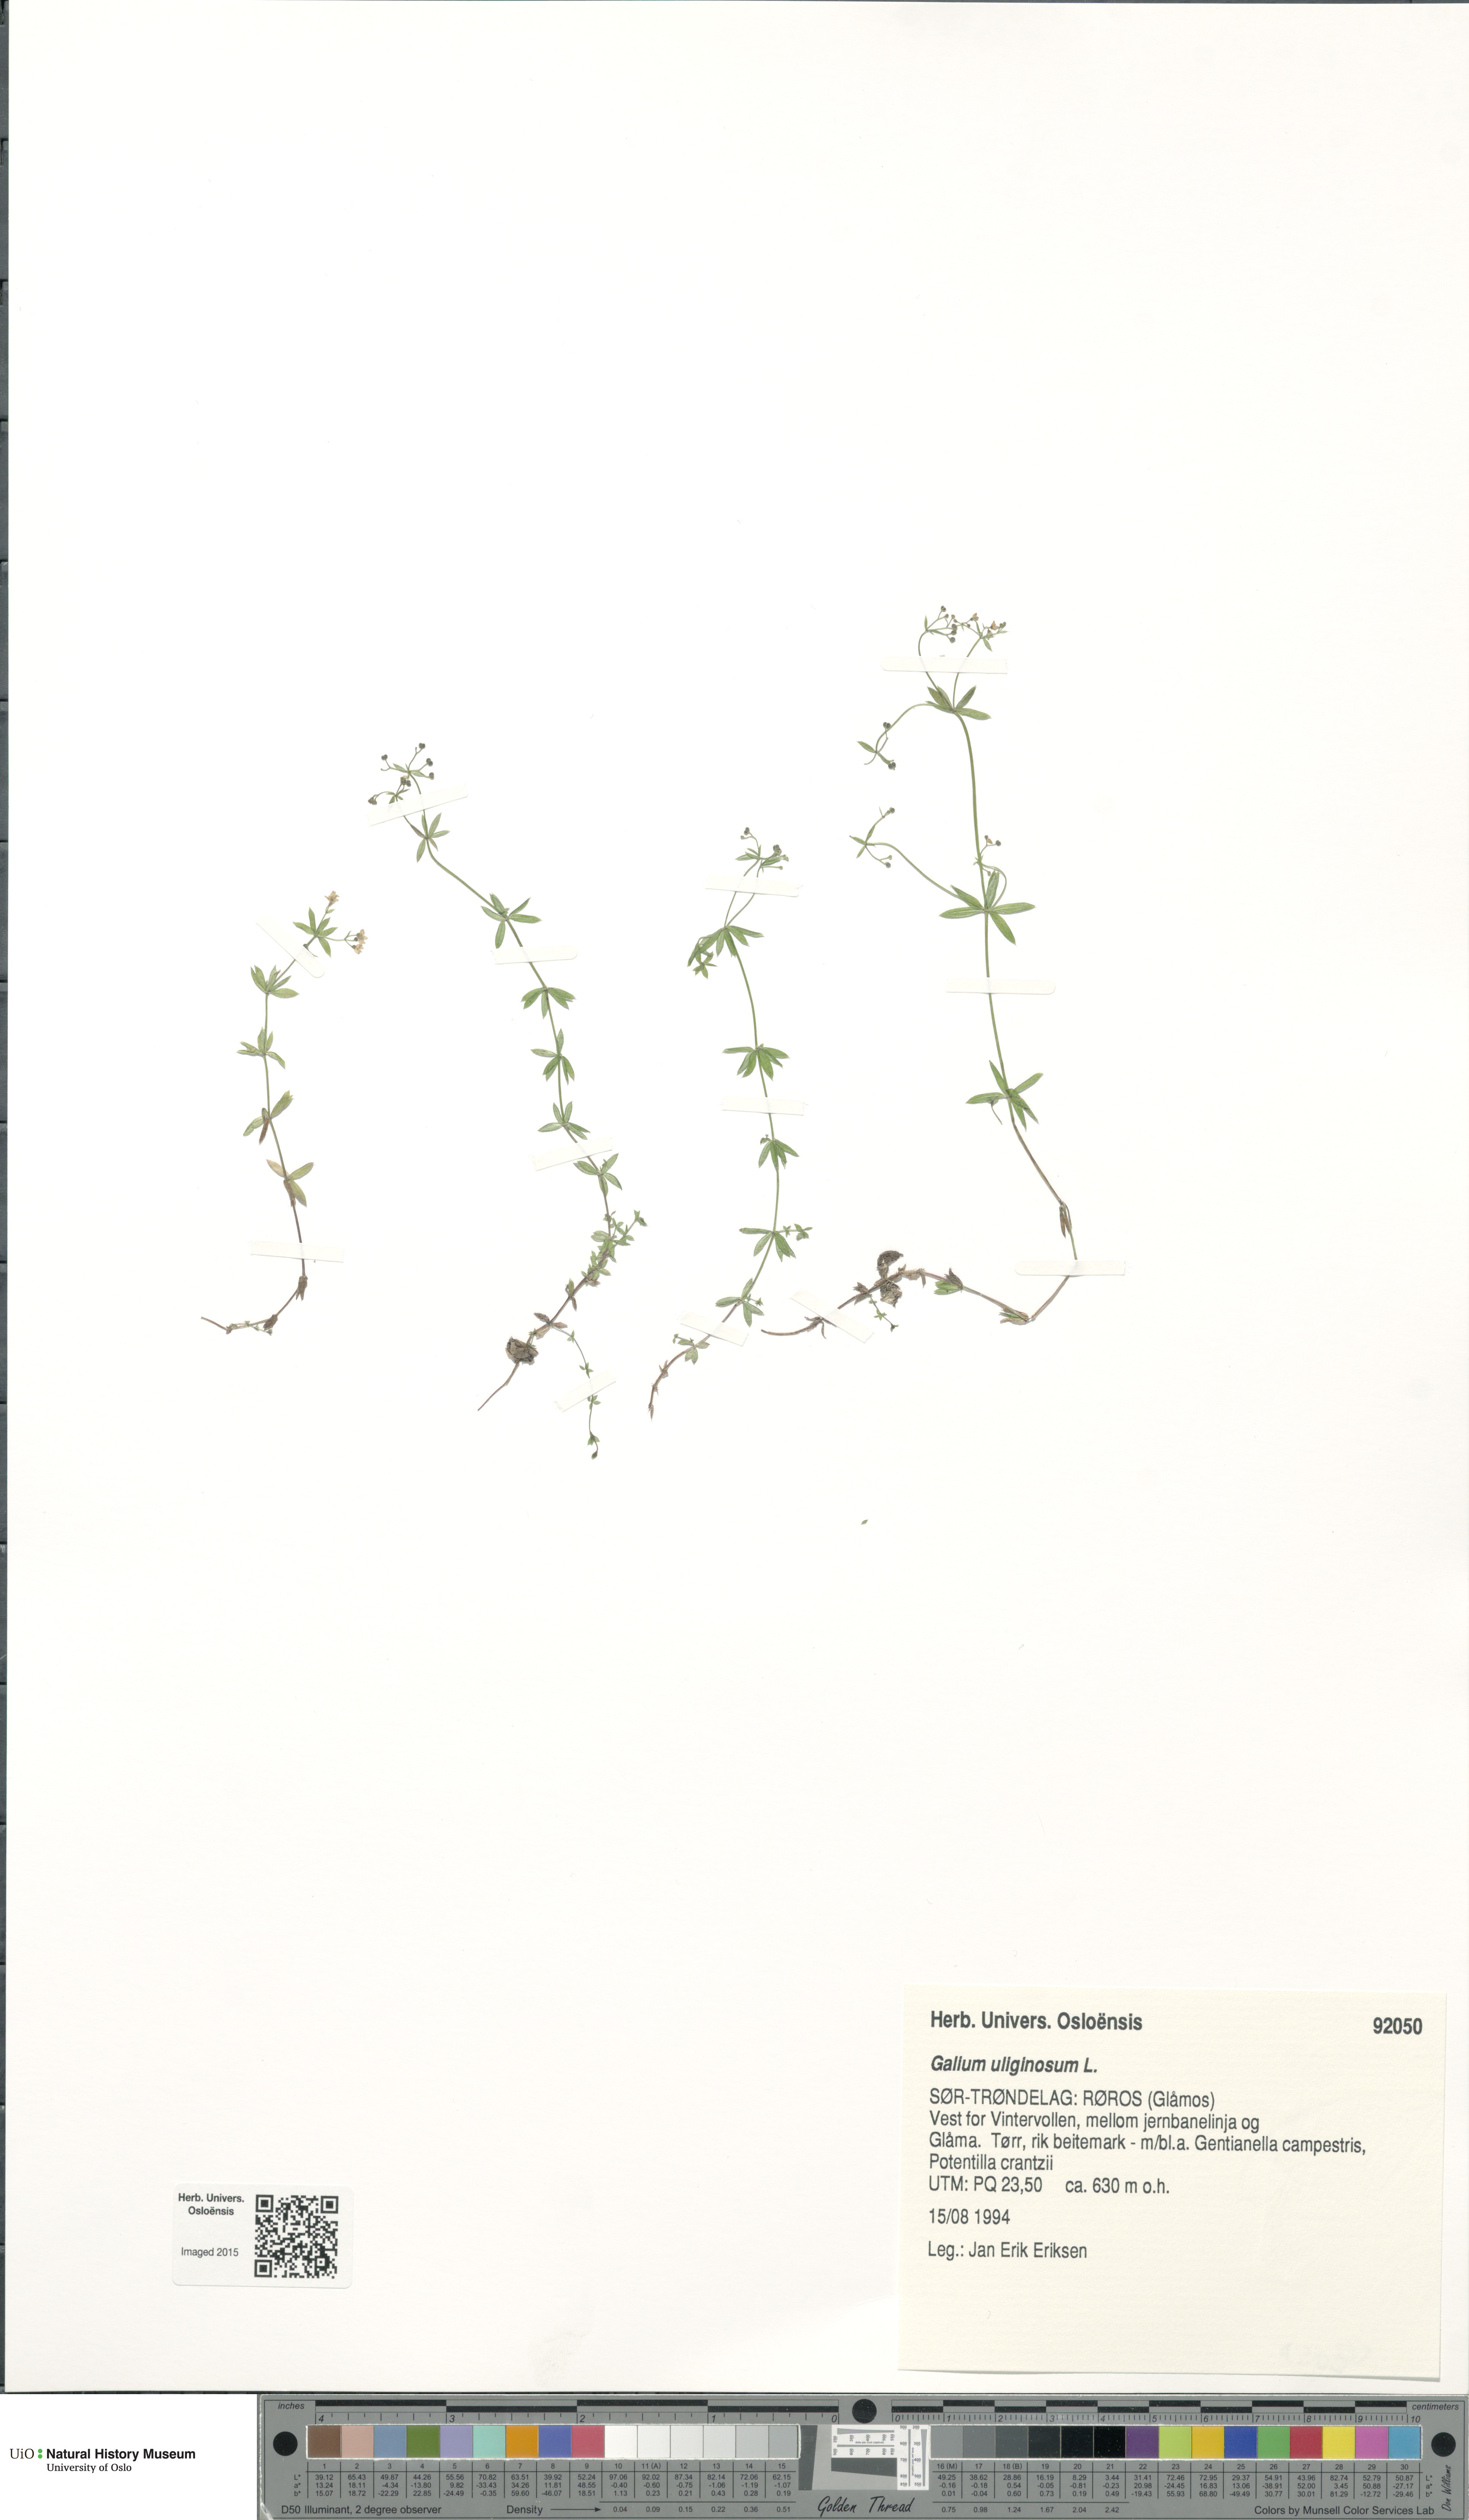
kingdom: Plantae
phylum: Tracheophyta
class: Magnoliopsida
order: Gentianales
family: Rubiaceae
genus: Galium
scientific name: Galium uliginosum
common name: Fen bedstraw
